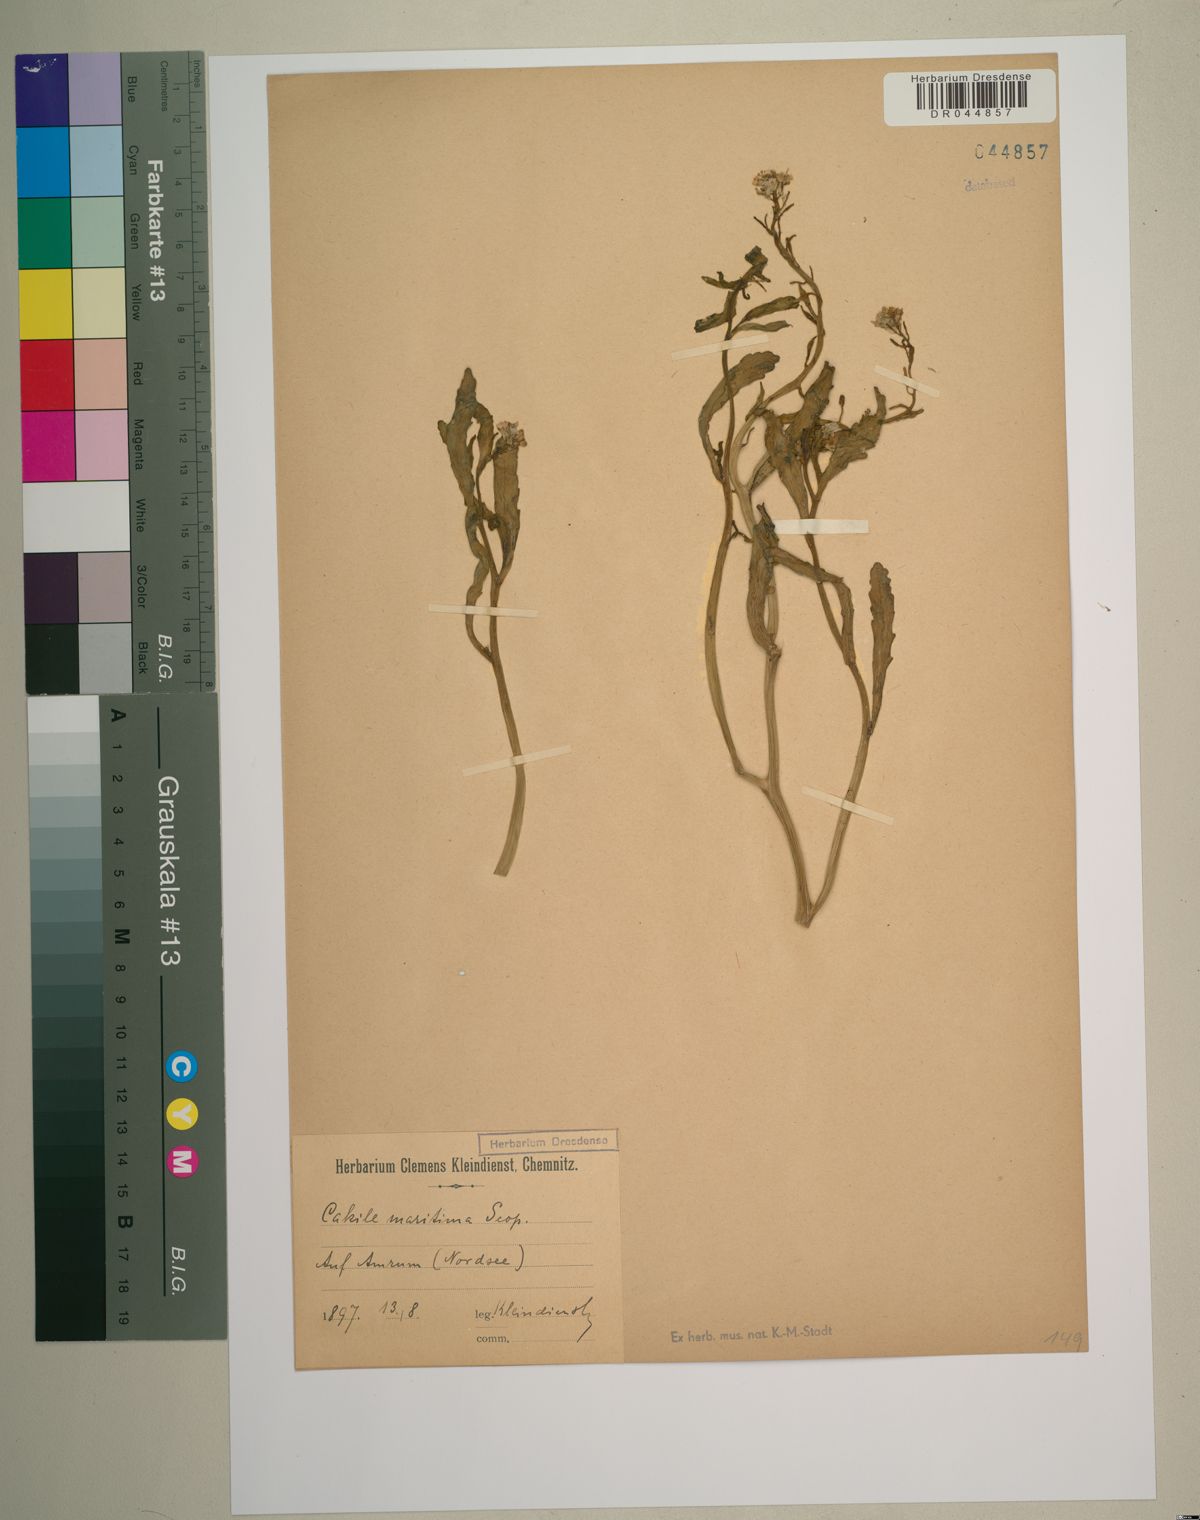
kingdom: Plantae
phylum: Tracheophyta
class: Magnoliopsida
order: Brassicales
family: Brassicaceae
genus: Cakile
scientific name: Cakile maritima
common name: Sea rocket
